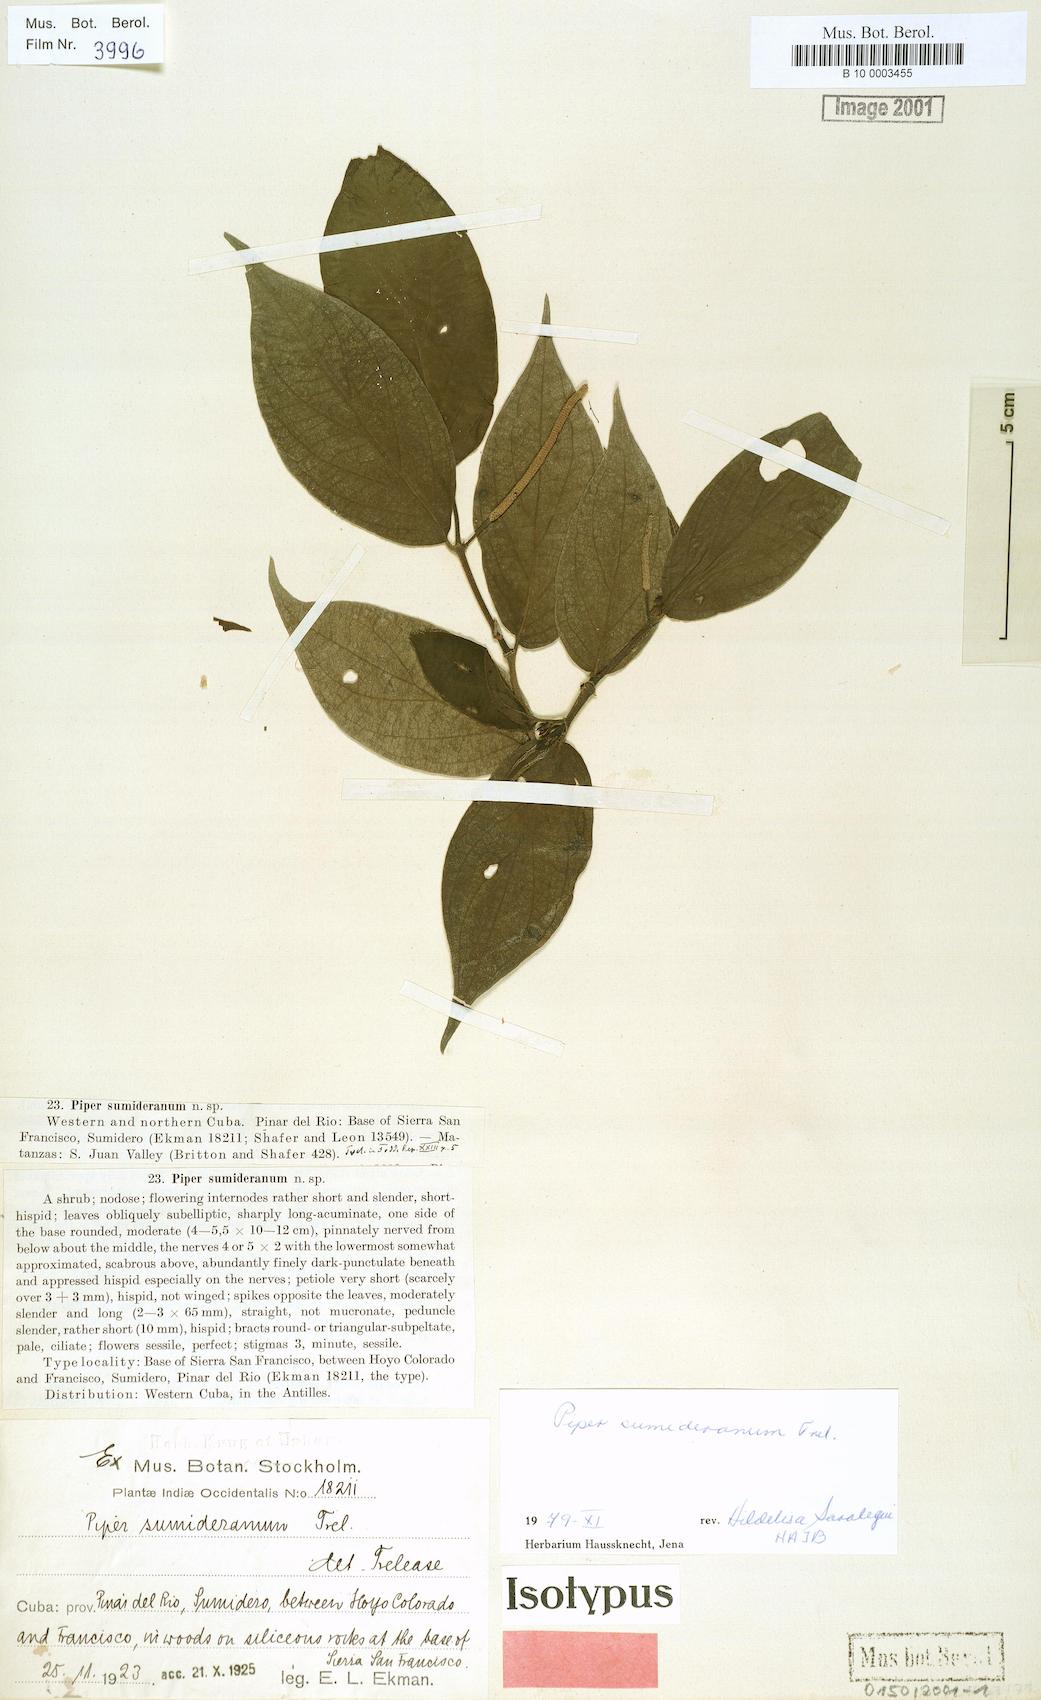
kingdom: Plantae
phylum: Tracheophyta
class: Magnoliopsida
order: Piperales
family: Piperaceae
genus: Piper
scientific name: Piper hispidum
